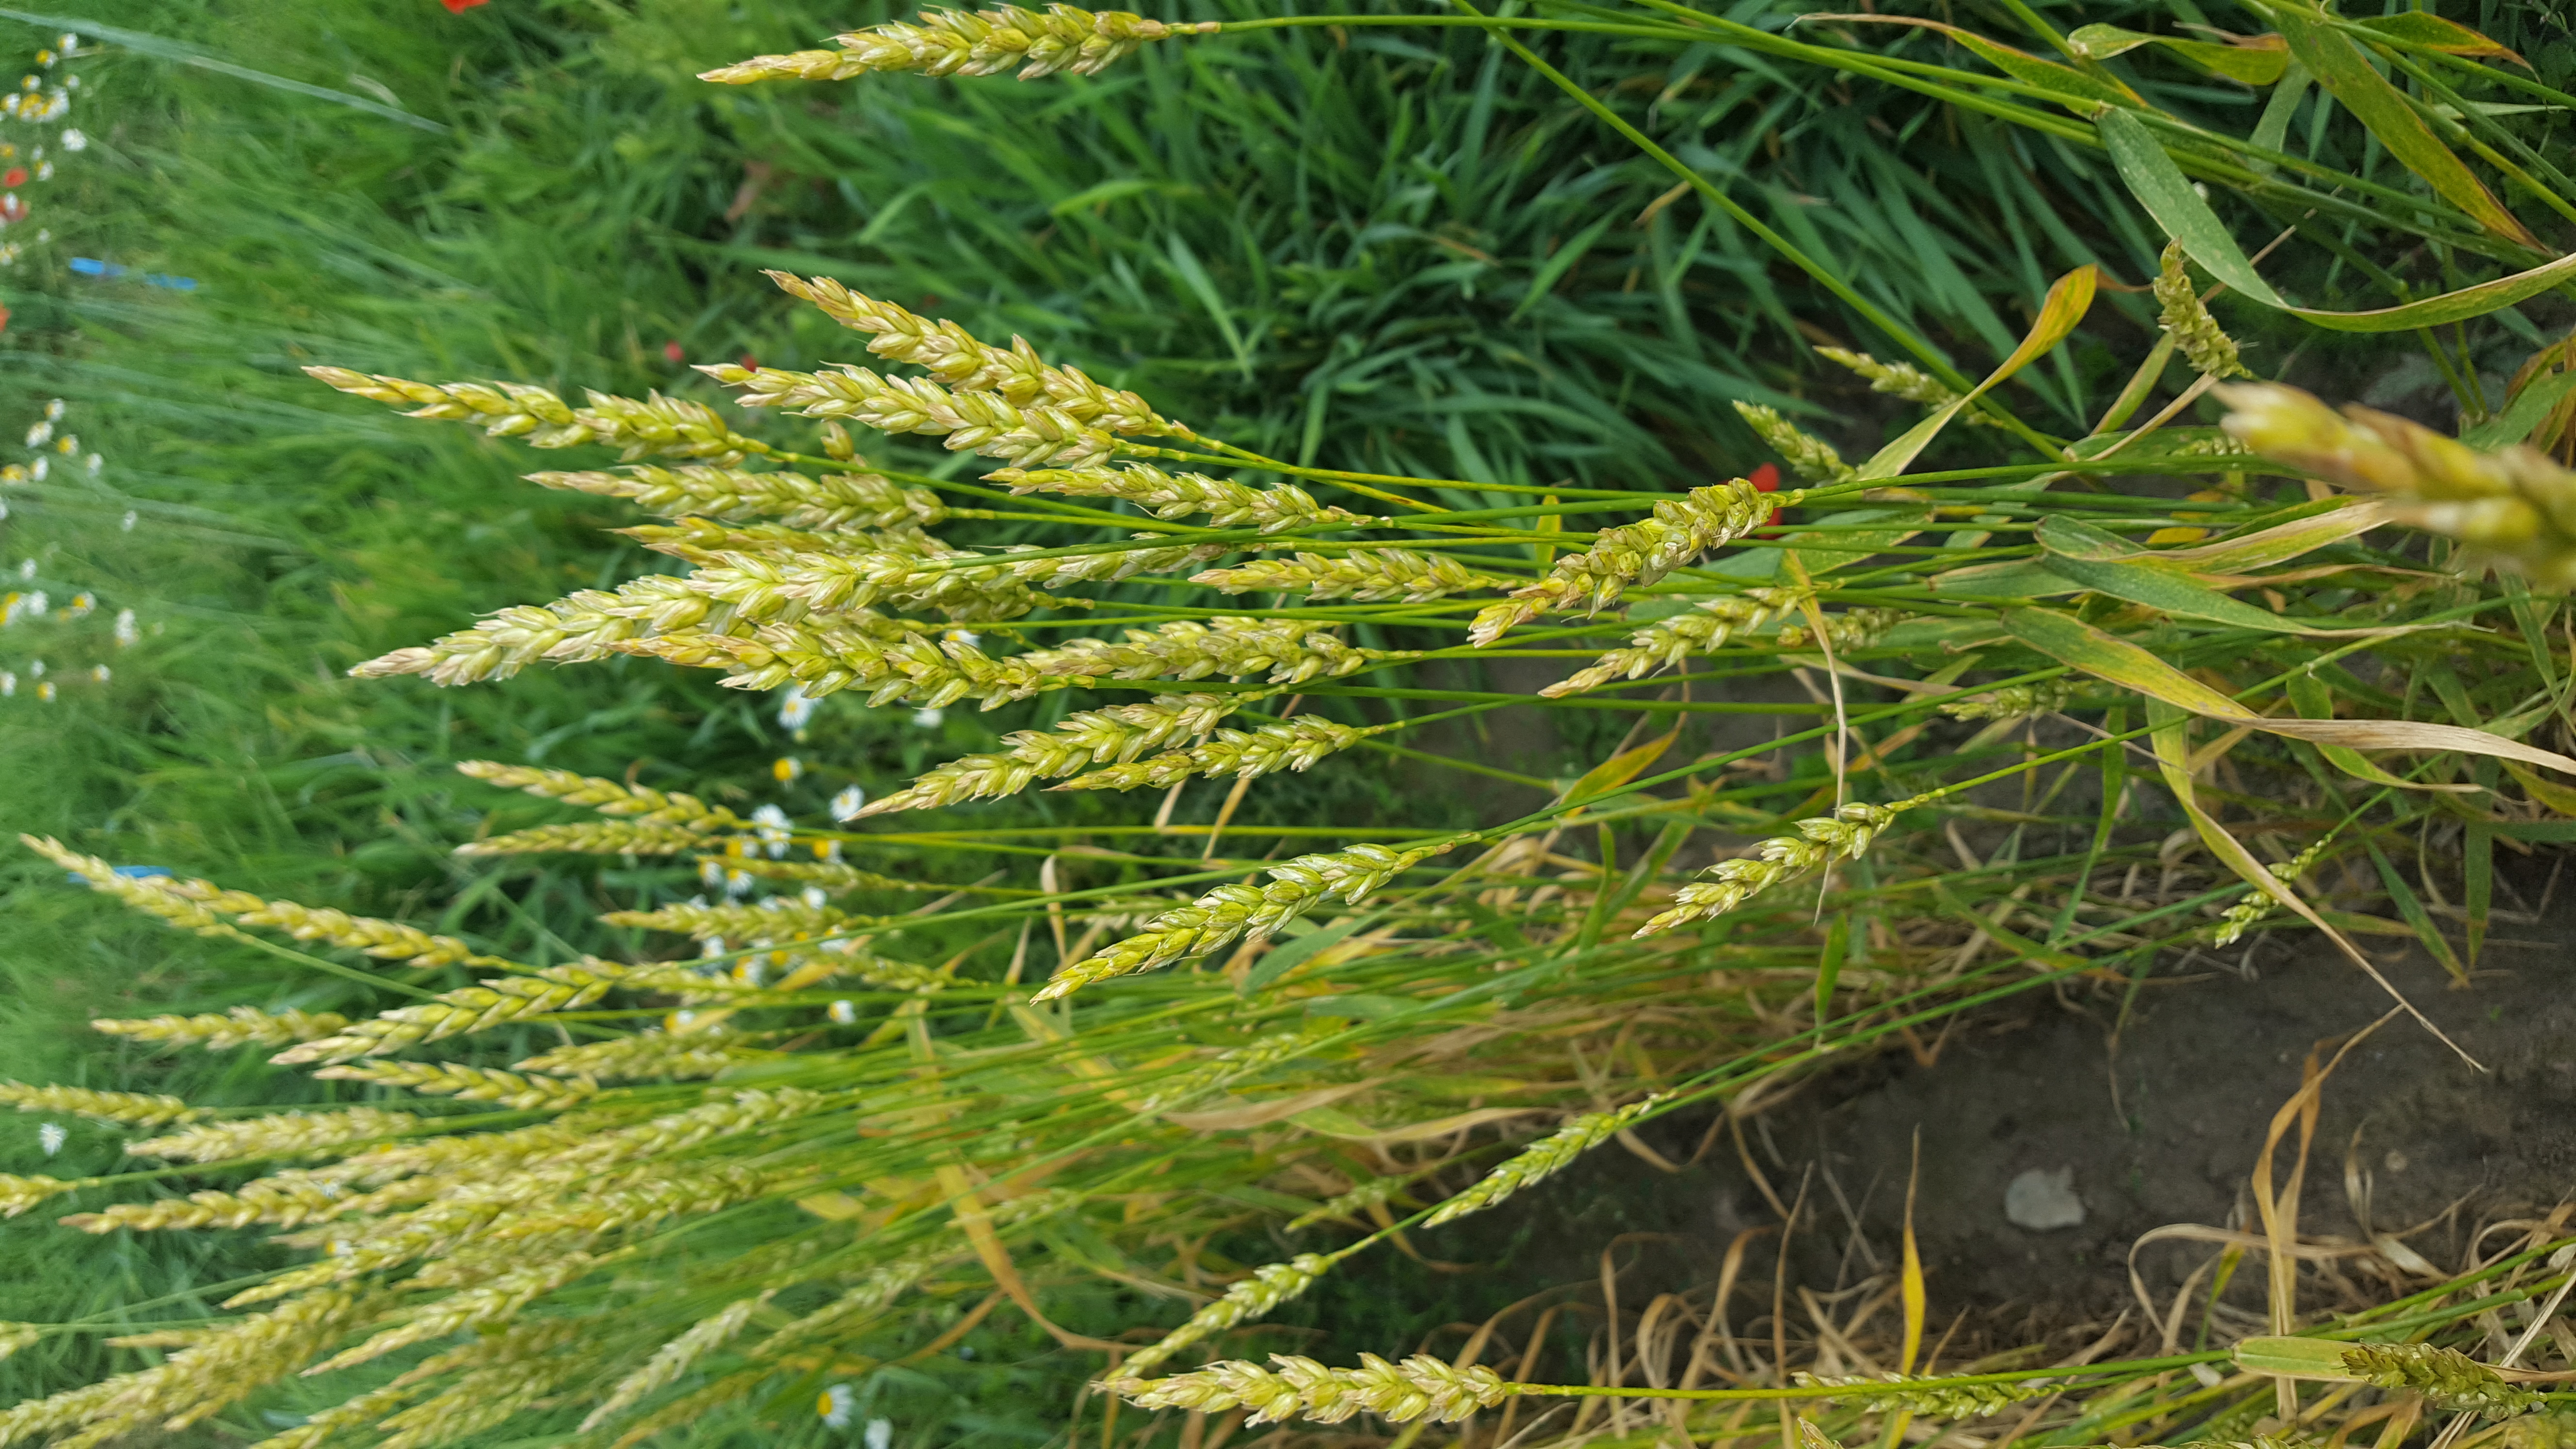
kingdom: Plantae
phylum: Tracheophyta
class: Liliopsida
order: Poales
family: Poaceae
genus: Triticum
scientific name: Triticum aestivum
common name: Common wheat
